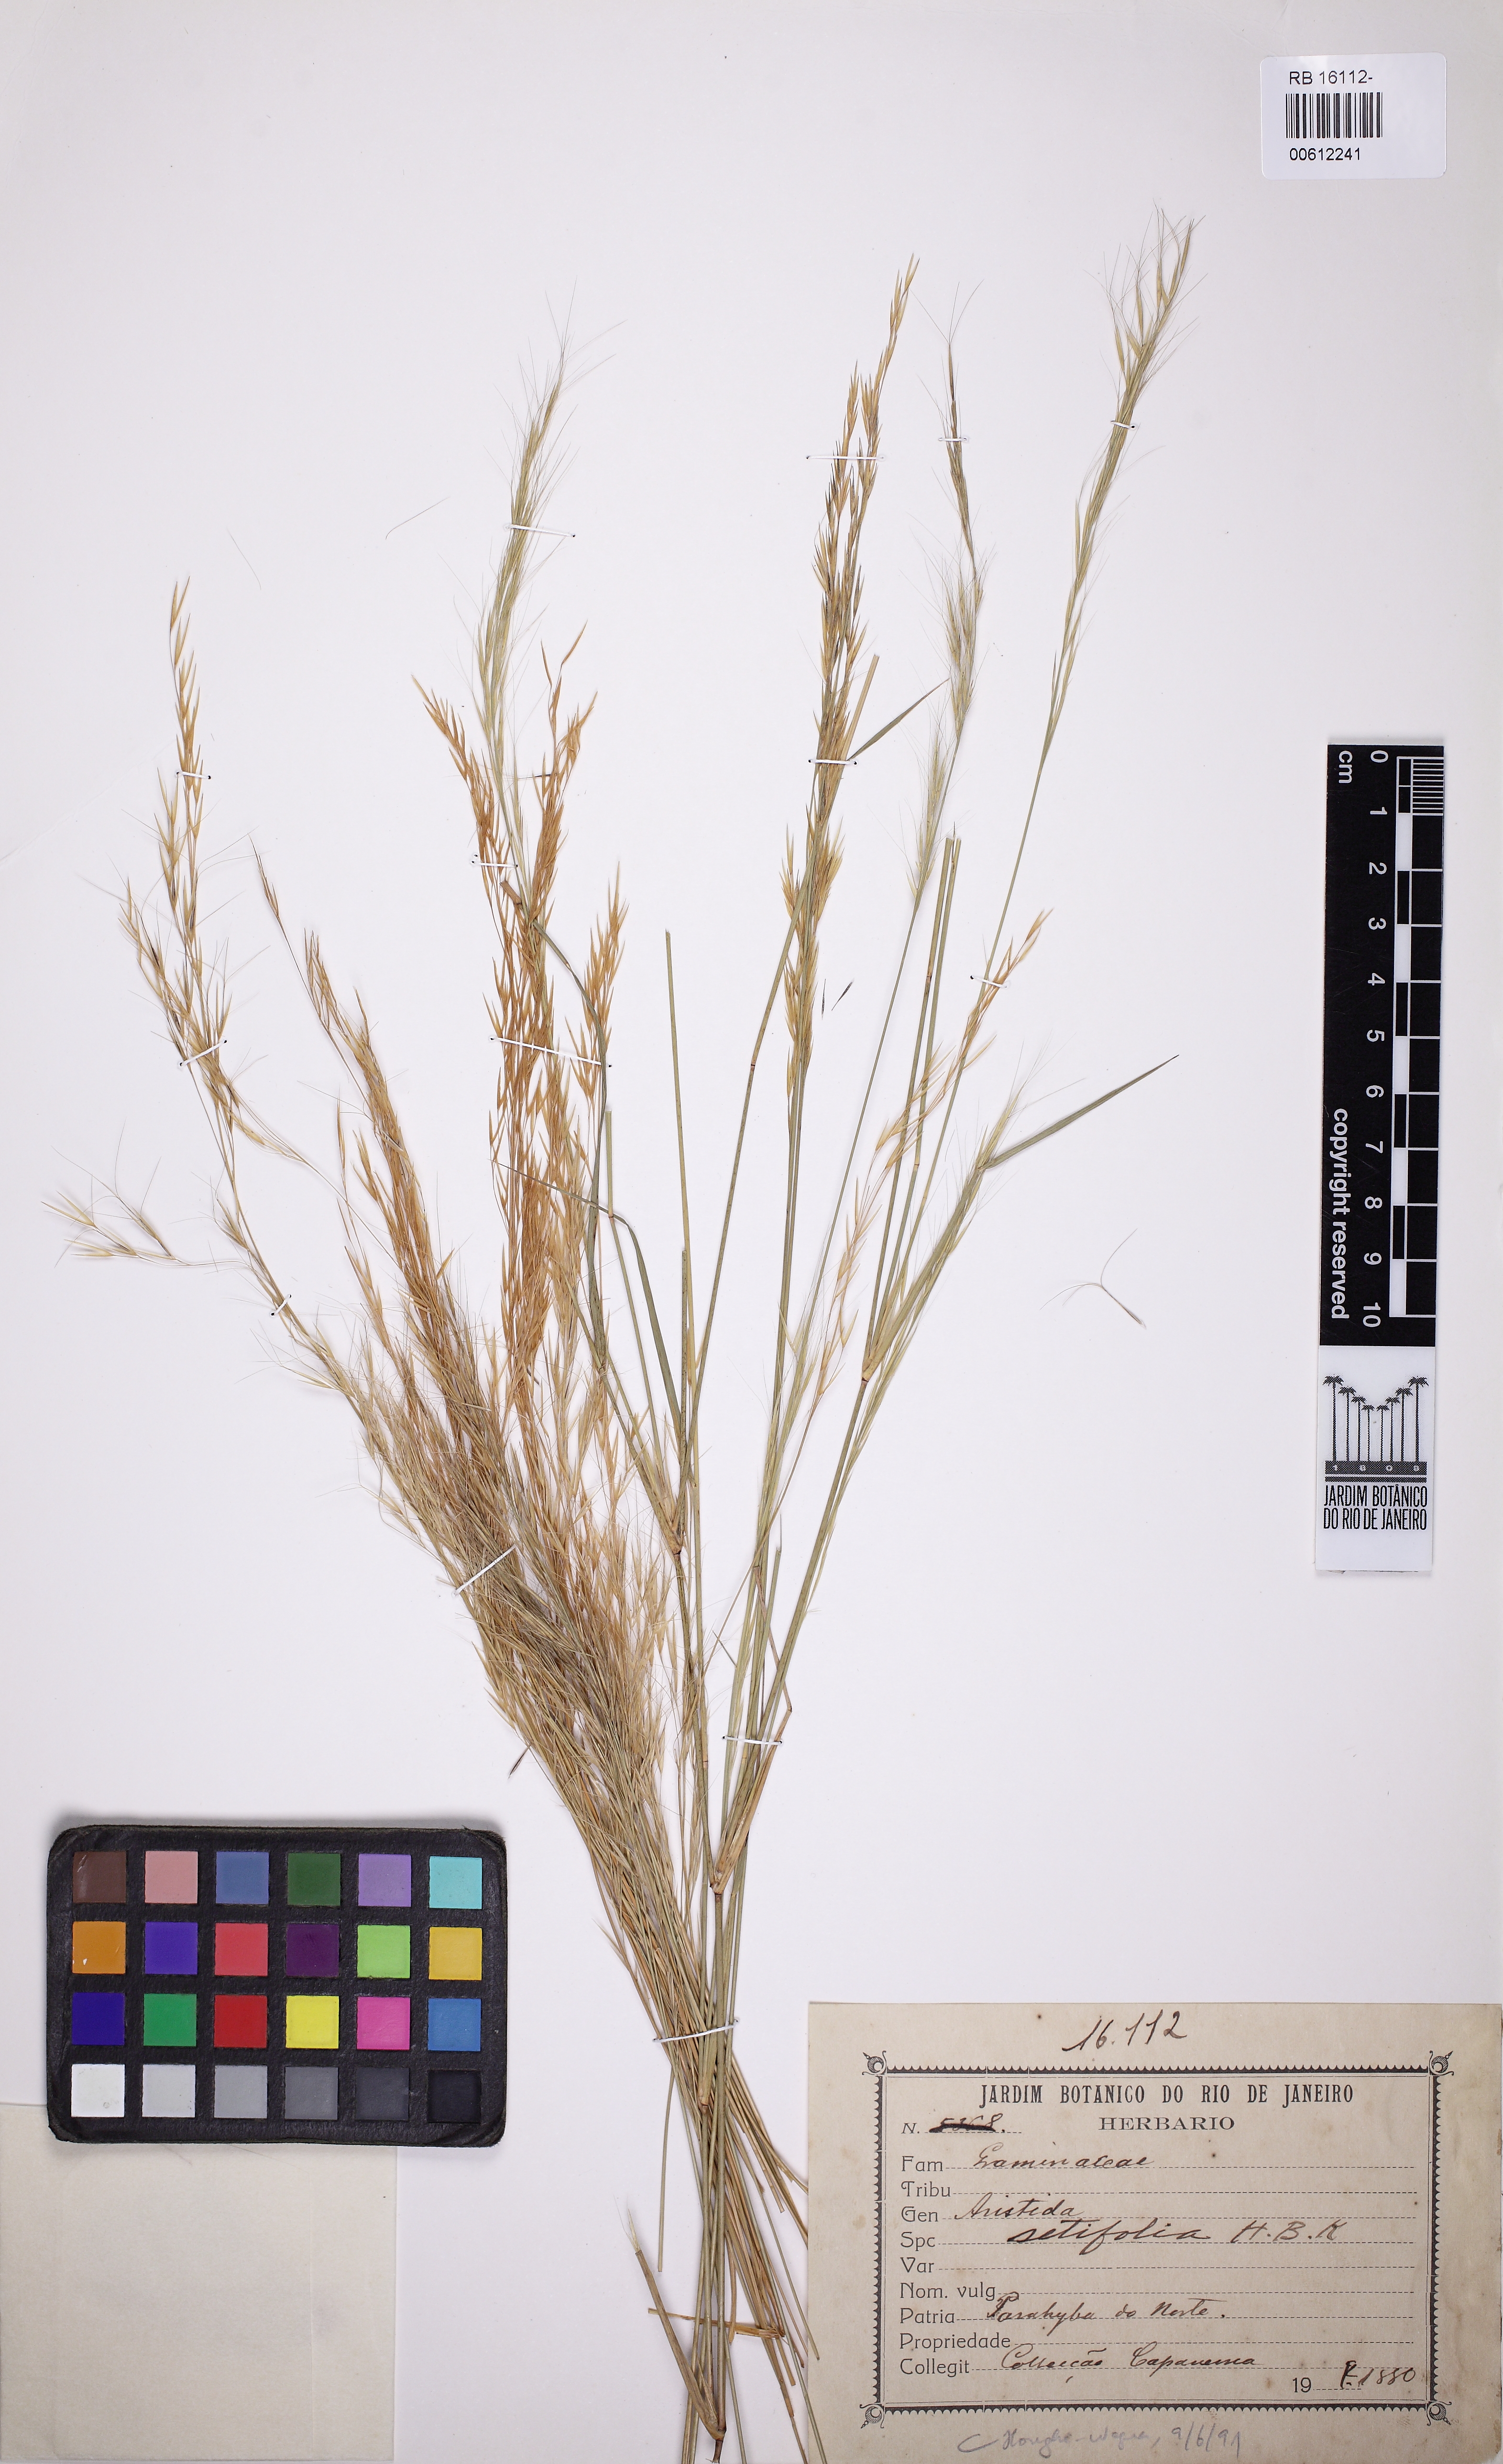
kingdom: Plantae
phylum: Tracheophyta
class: Liliopsida
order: Poales
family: Poaceae
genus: Aristida
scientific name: Aristida setifolia
